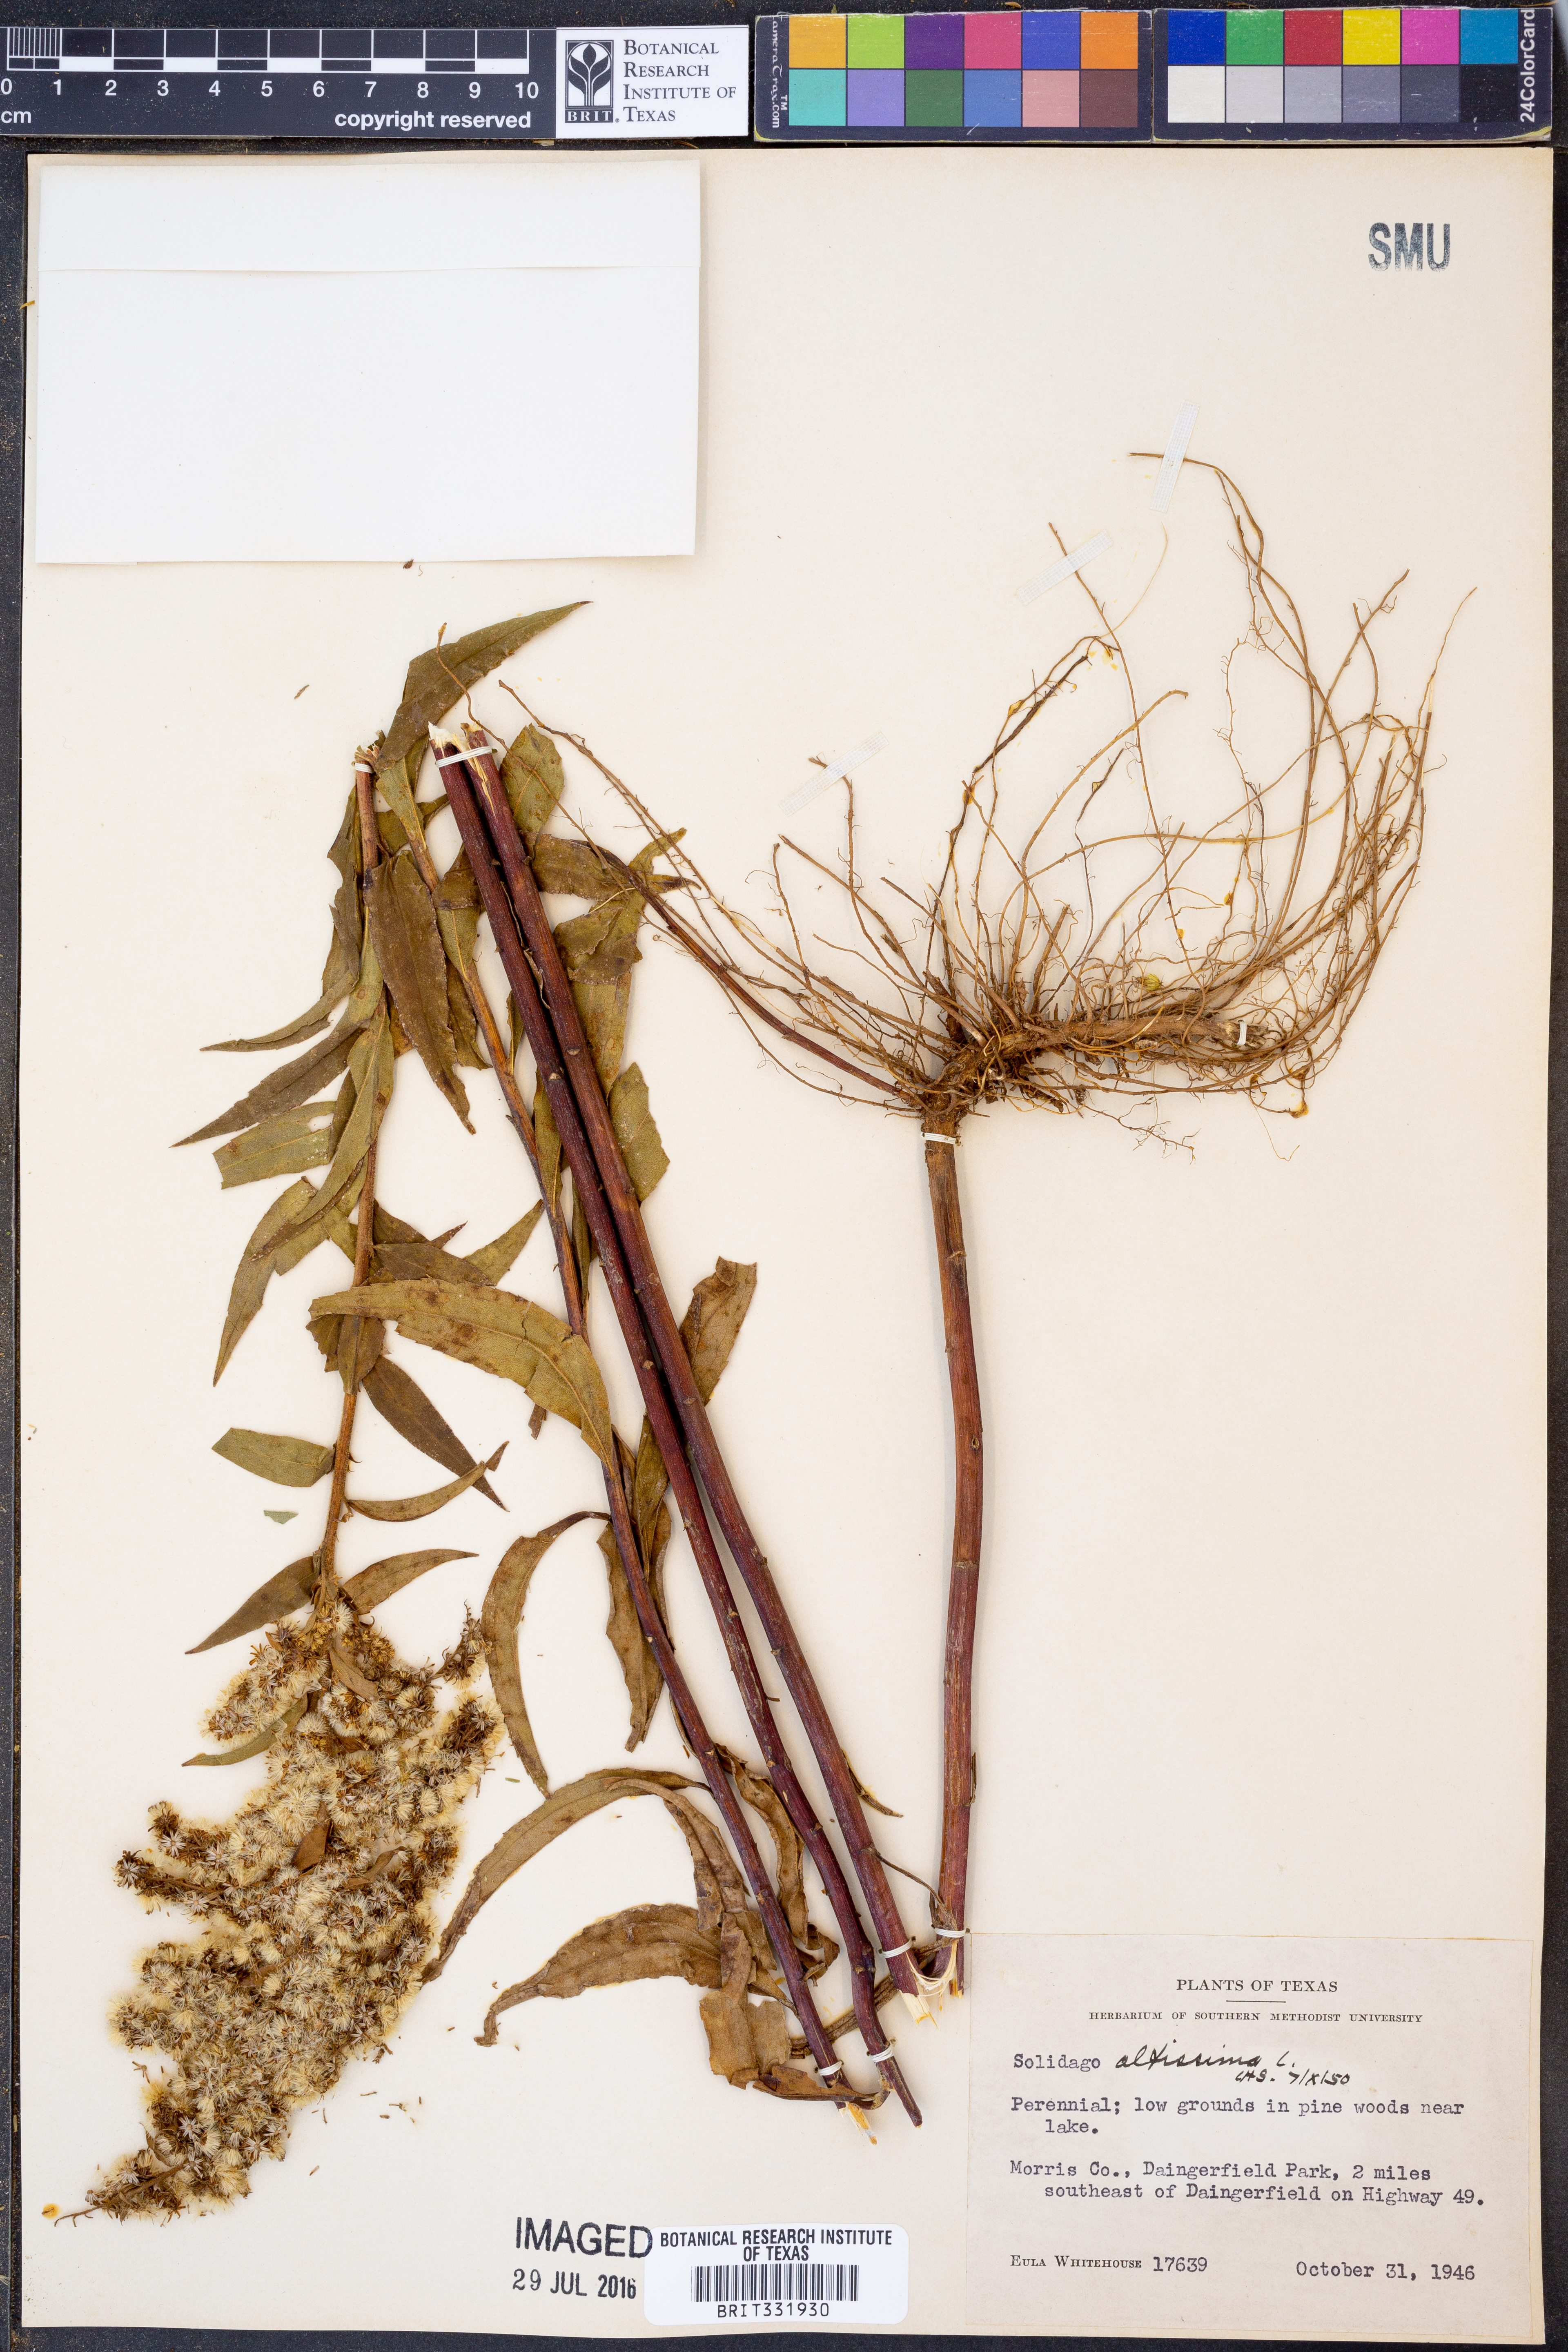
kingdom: Plantae
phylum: Tracheophyta
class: Magnoliopsida
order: Asterales
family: Asteraceae
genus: Solidago
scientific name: Solidago altissima
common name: Late goldenrod
